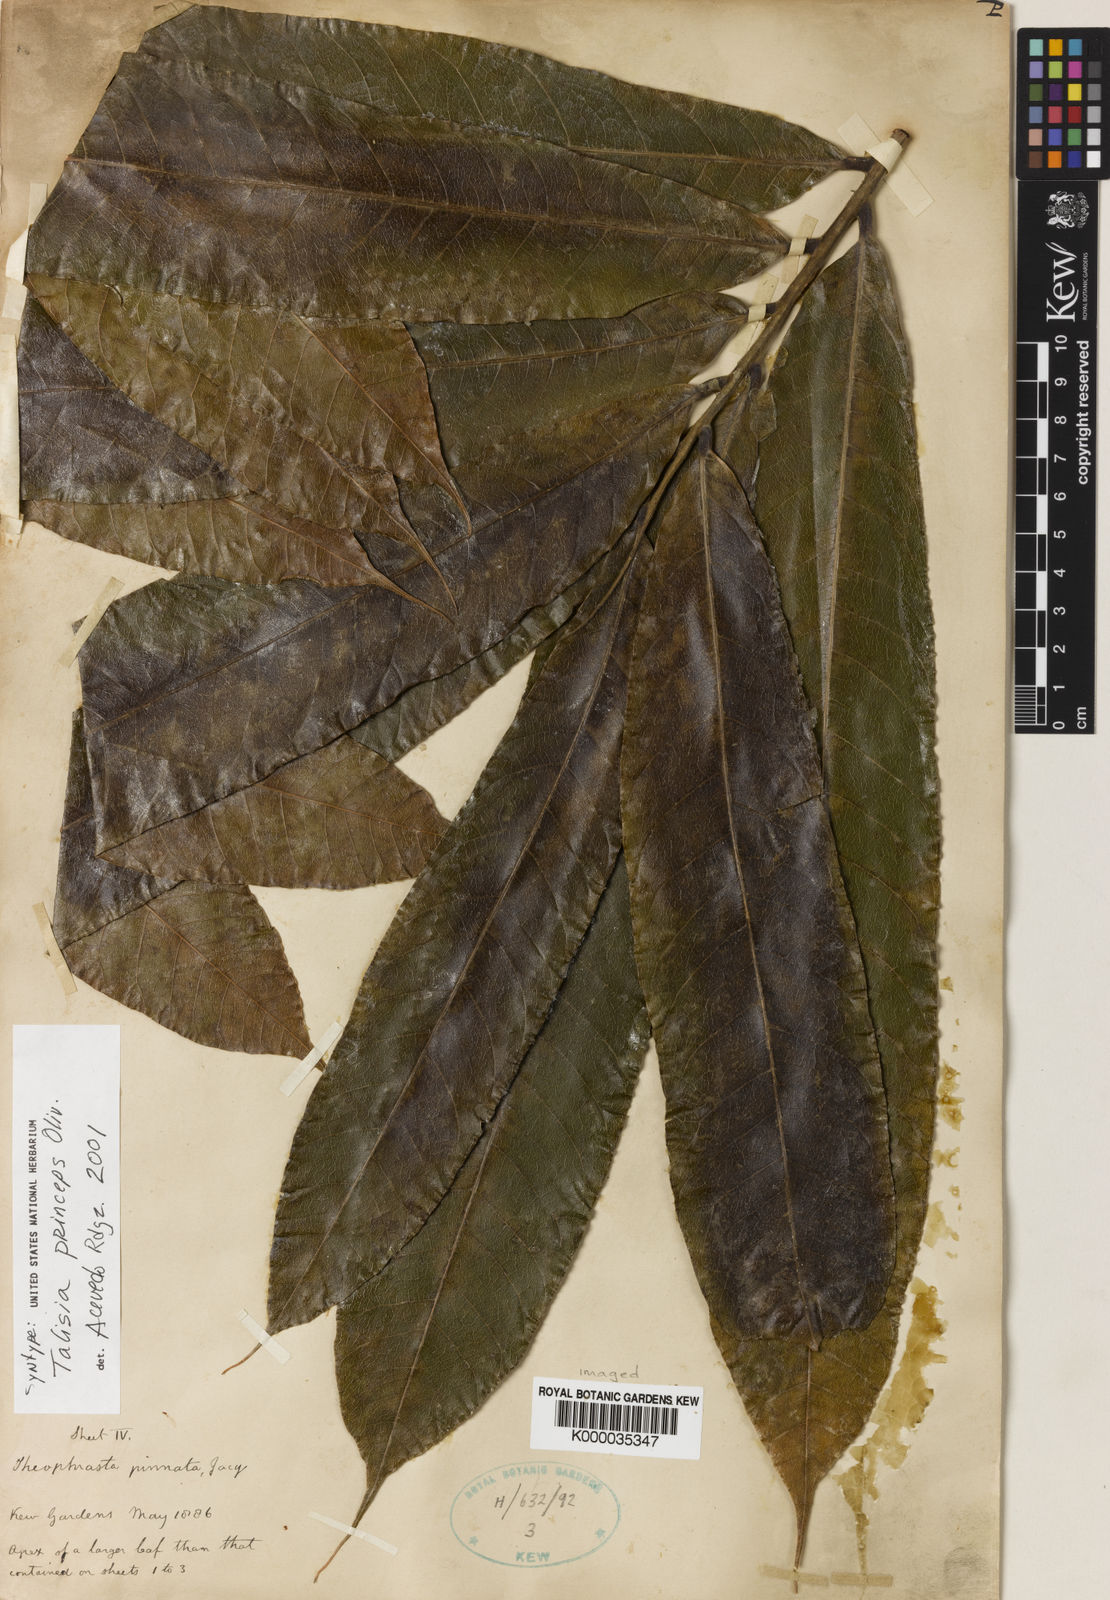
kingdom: Plantae
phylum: Tracheophyta
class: Magnoliopsida
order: Sapindales
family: Sapindaceae
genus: Talisia
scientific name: Talisia princeps
